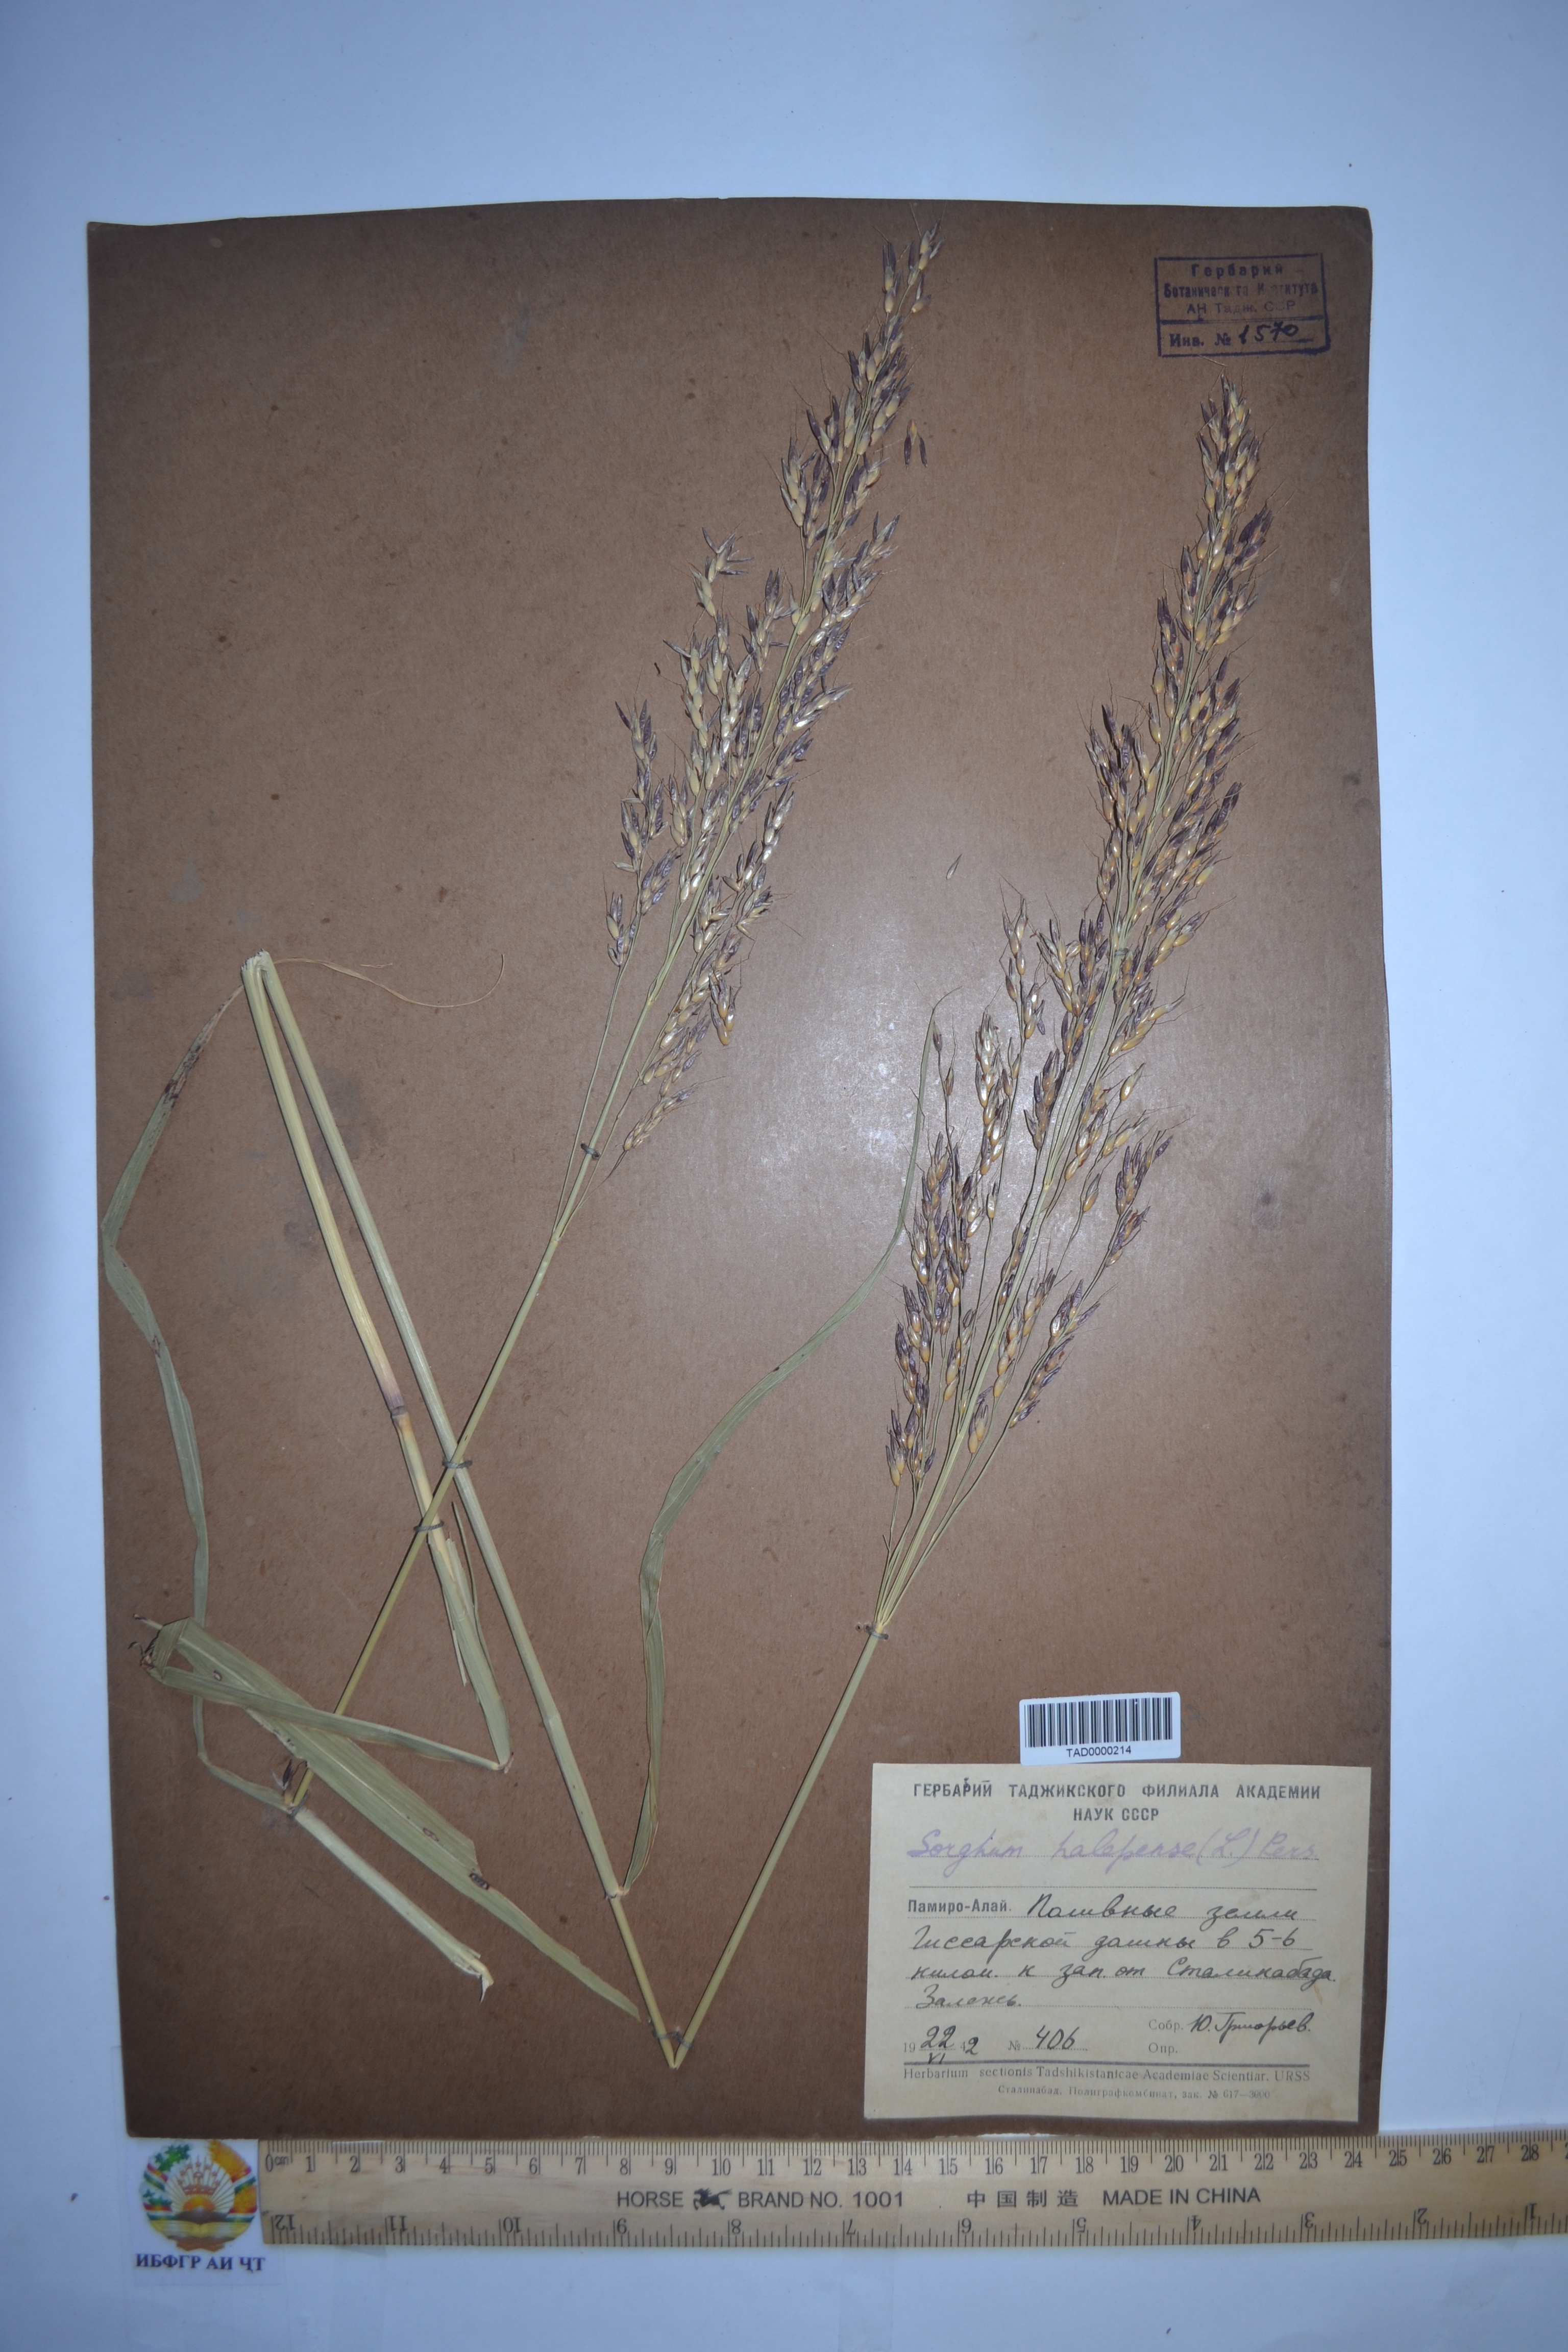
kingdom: Plantae
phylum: Tracheophyta
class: Liliopsida
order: Poales
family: Poaceae
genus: Sorghum
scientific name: Sorghum halepense
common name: Johnson-grass
